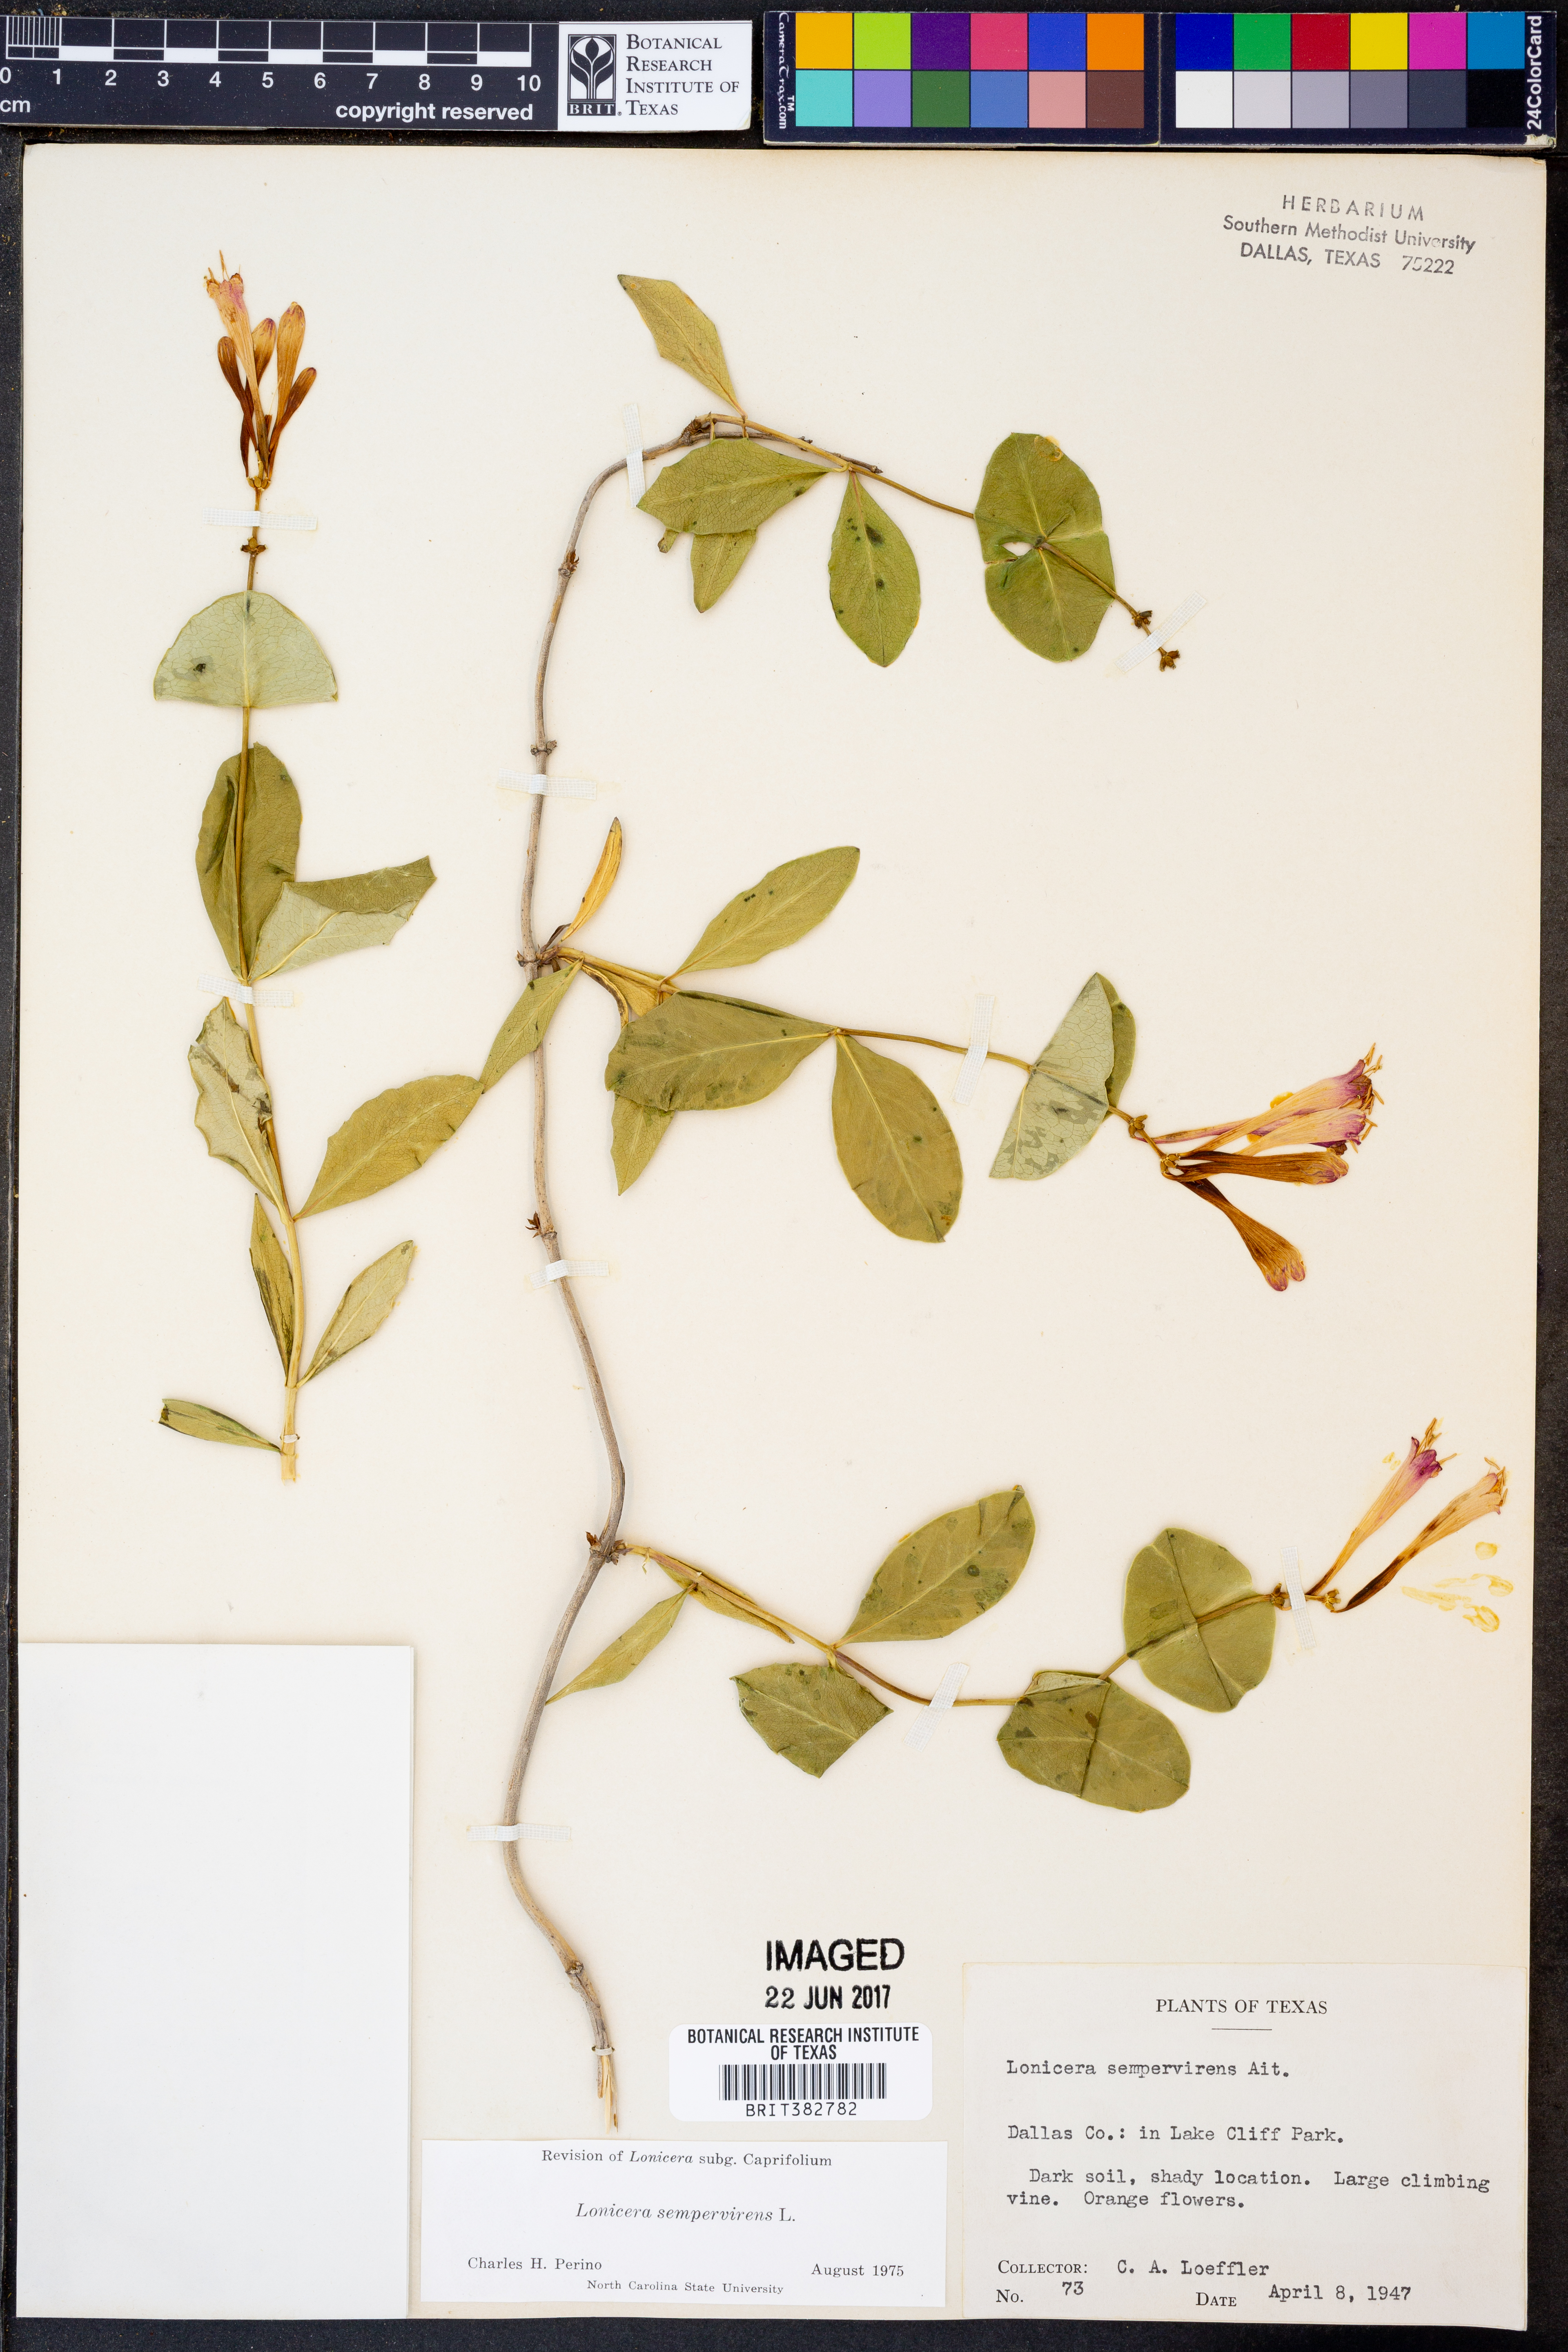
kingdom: Plantae
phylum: Tracheophyta
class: Magnoliopsida
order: Dipsacales
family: Caprifoliaceae
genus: Lonicera
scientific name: Lonicera sempervirens
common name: Coral honeysuckle
